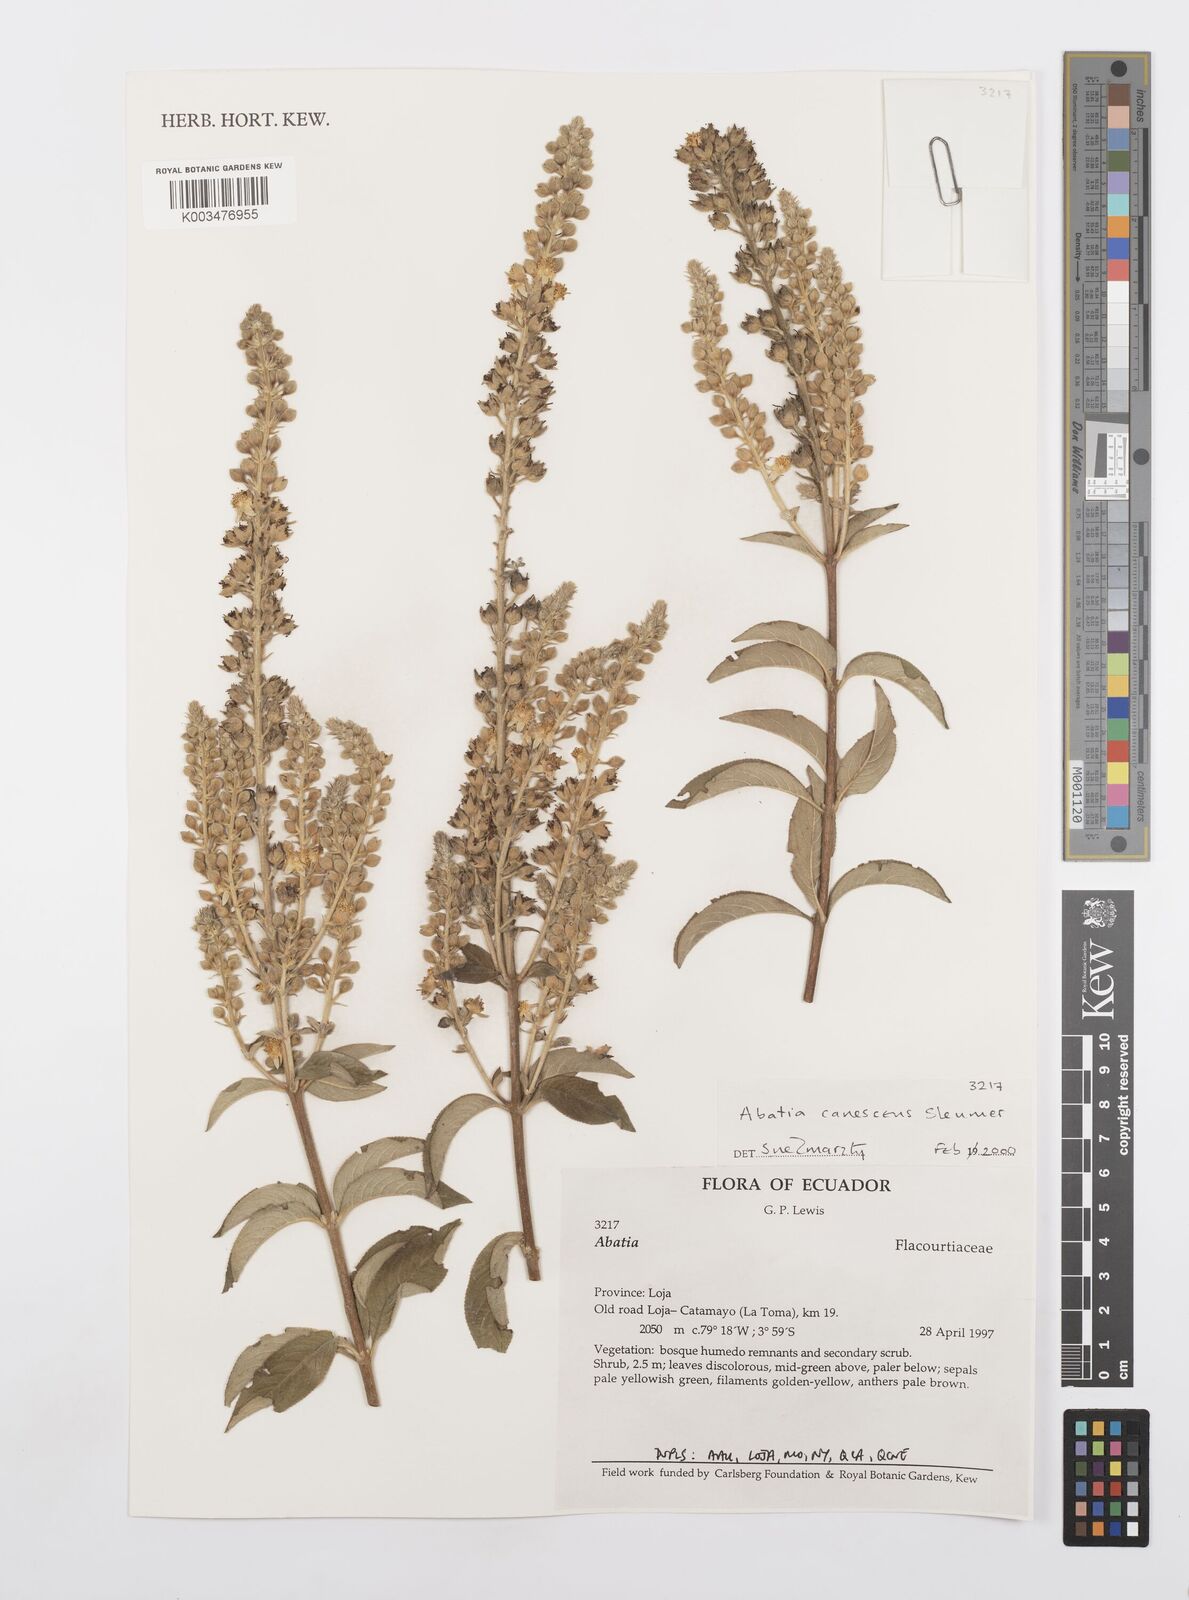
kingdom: Plantae
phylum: Tracheophyta
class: Magnoliopsida
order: Malpighiales
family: Salicaceae
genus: Abatia
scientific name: Abatia canescens
